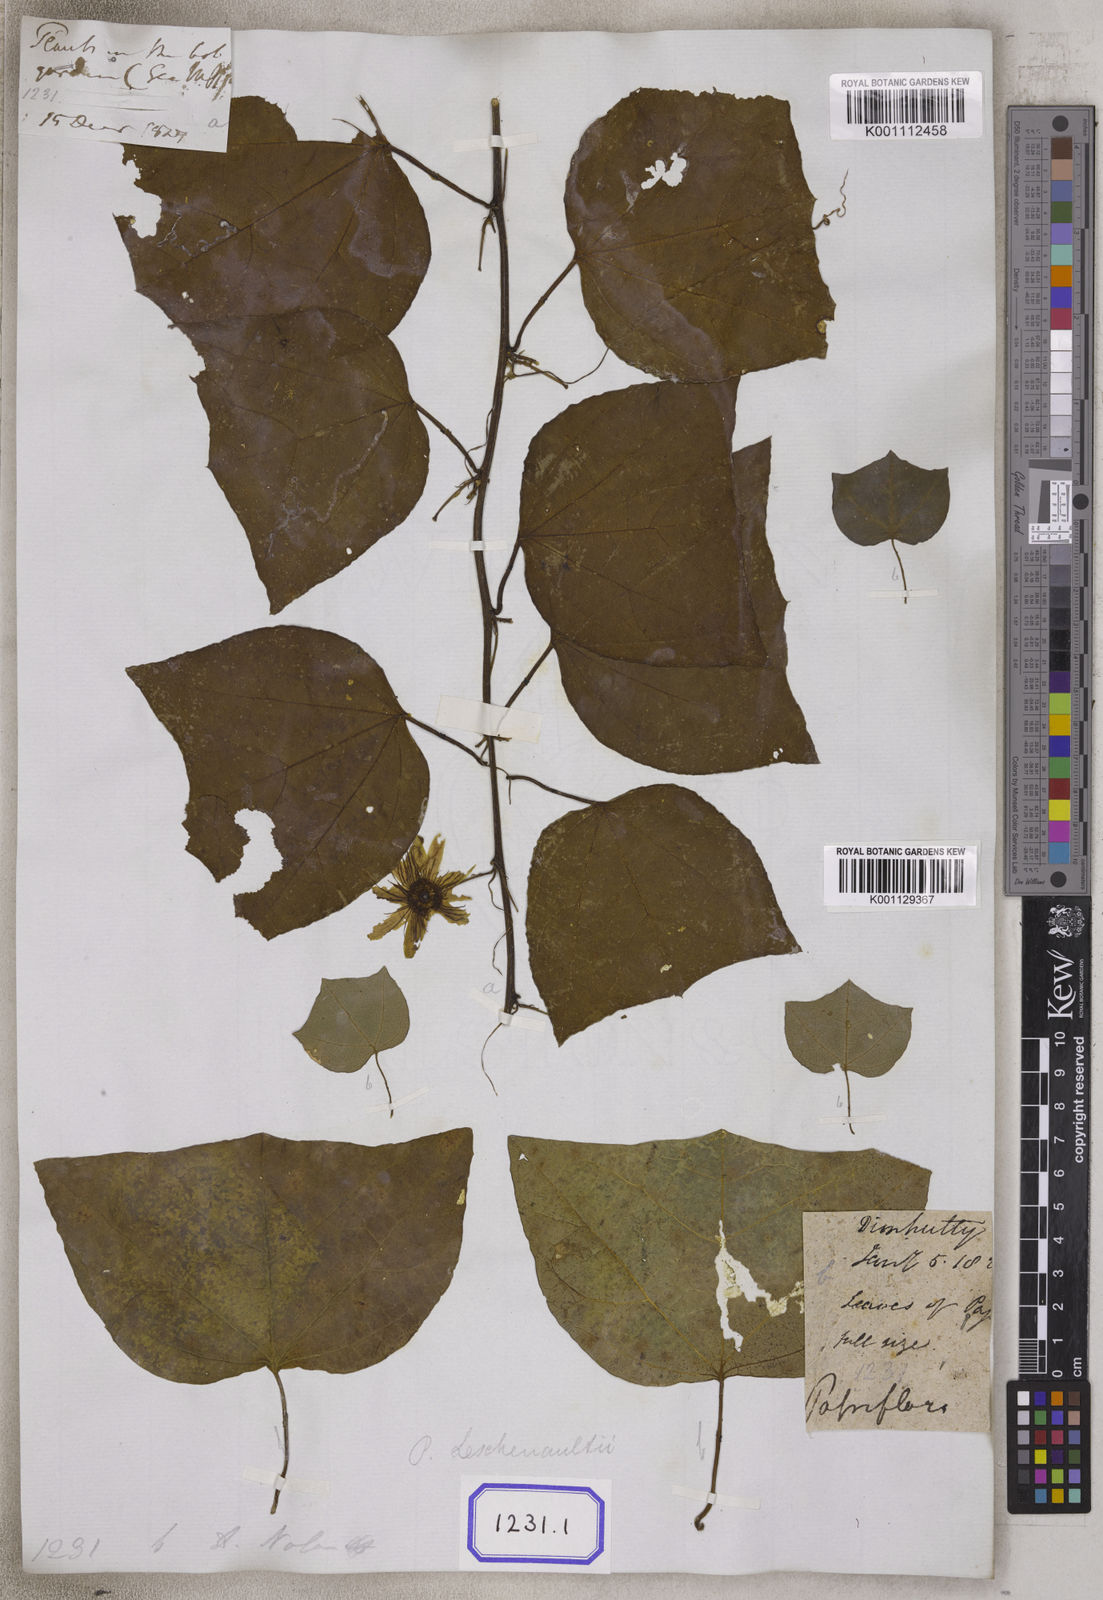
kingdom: Plantae
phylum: Tracheophyta
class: Magnoliopsida
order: Malpighiales
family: Passifloraceae
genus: Passiflora
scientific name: Passiflora leschenaultii
